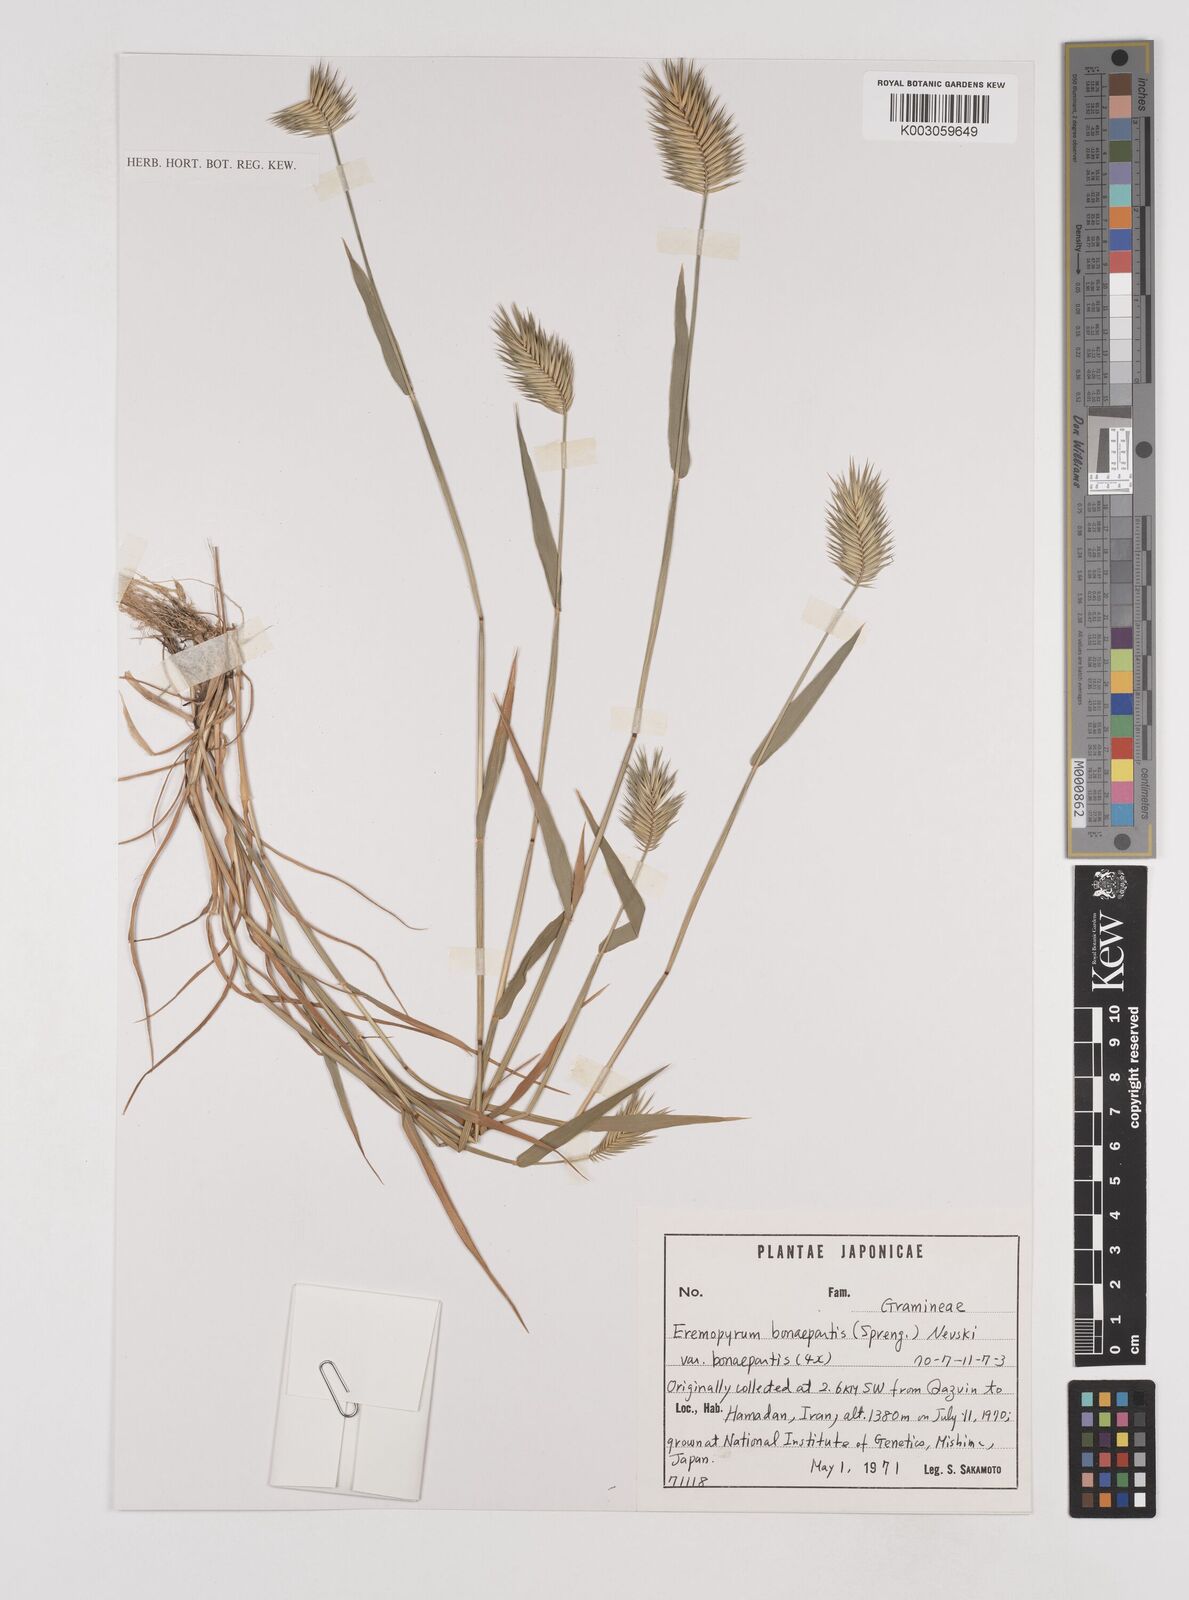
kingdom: Plantae
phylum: Tracheophyta
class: Liliopsida
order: Poales
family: Poaceae
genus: Eremopyrum
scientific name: Eremopyrum bonaepartis
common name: Tapertip false wheatgrass
